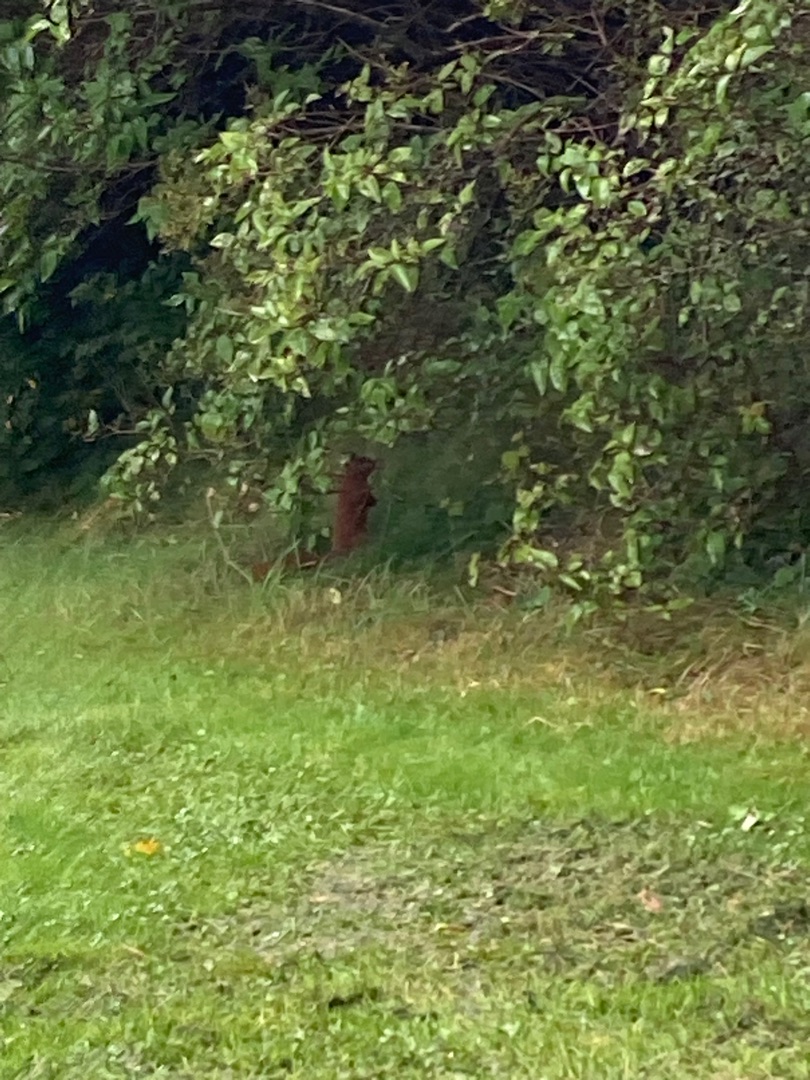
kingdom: Animalia
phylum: Chordata
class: Mammalia
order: Rodentia
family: Sciuridae
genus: Sciurus
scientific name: Sciurus vulgaris
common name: Egern
